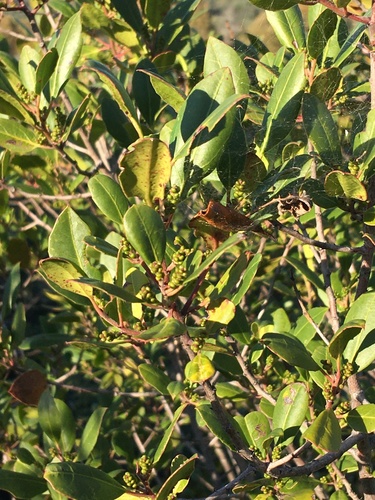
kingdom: Plantae
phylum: Tracheophyta
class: Magnoliopsida
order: Rosales
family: Rhamnaceae
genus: Rhamnus
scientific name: Rhamnus alaternus
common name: Mediterranean buckthorn
